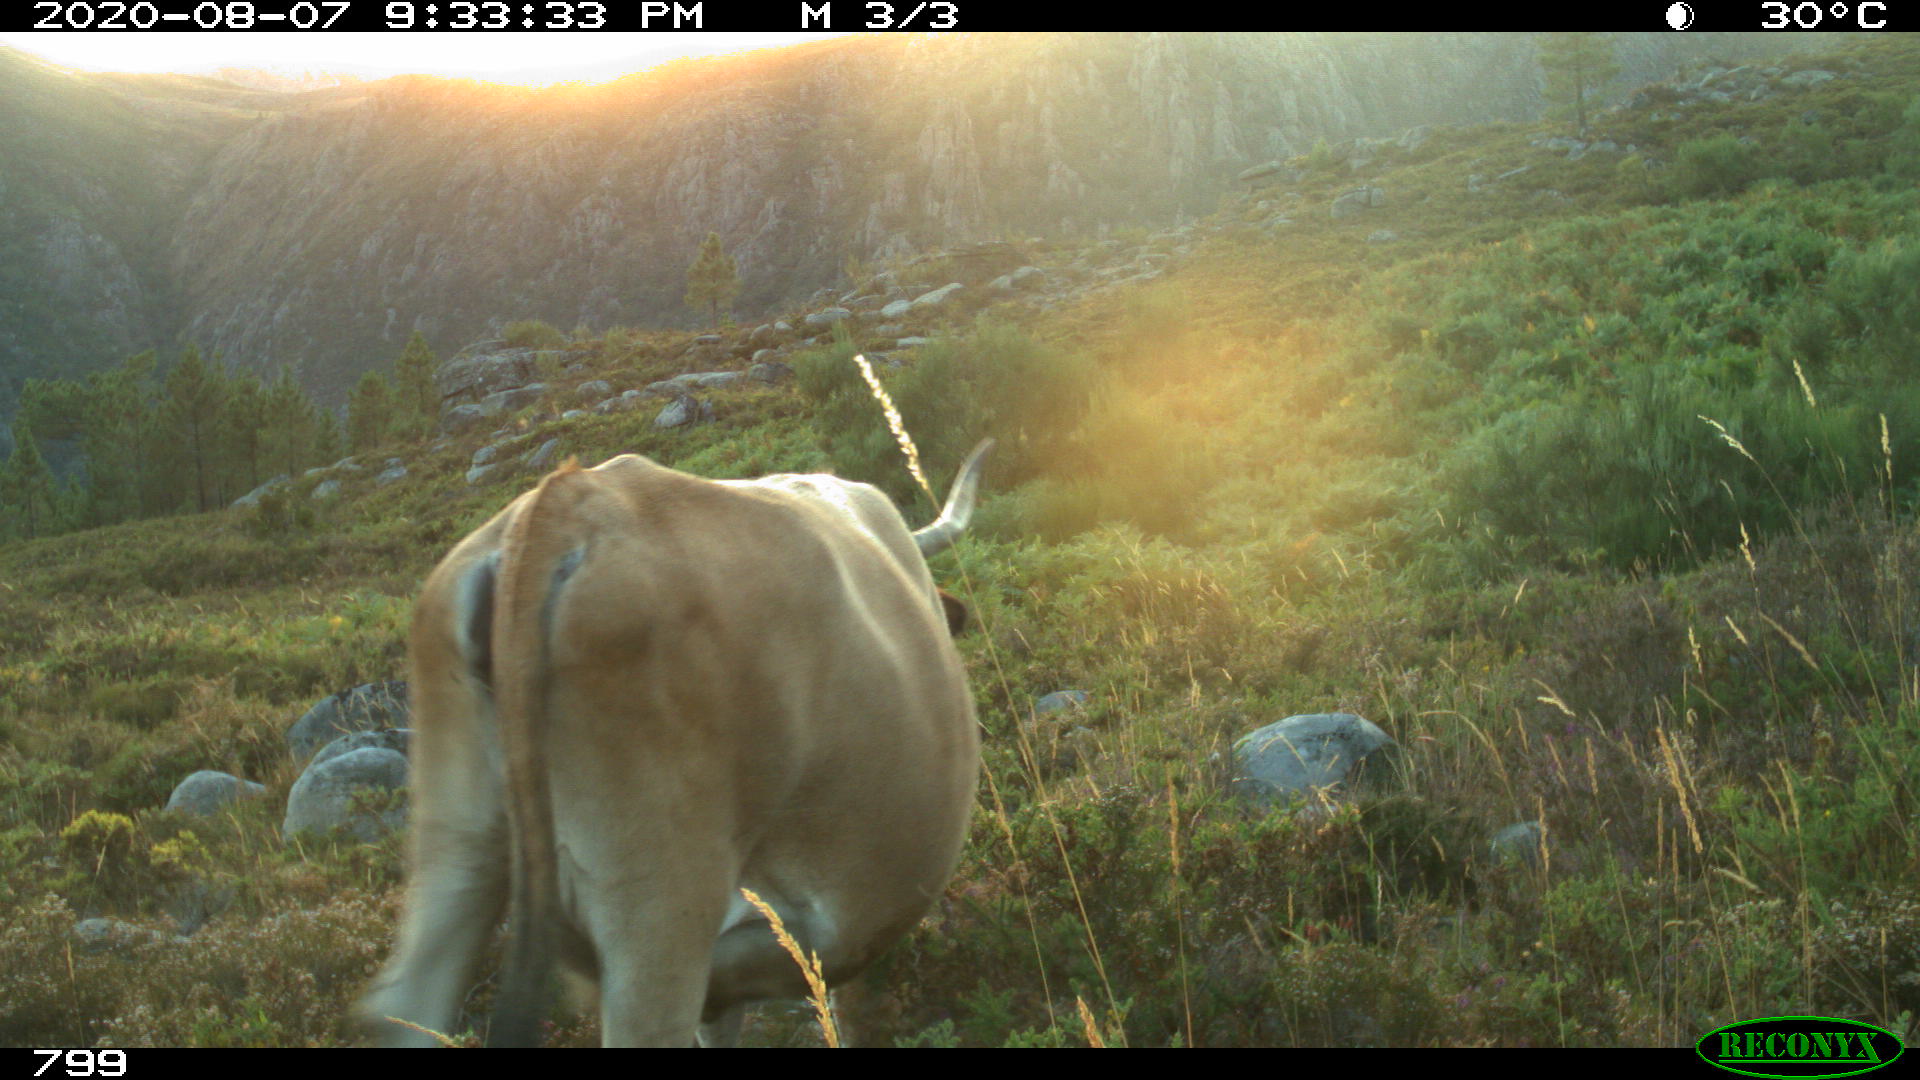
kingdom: Animalia
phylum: Chordata
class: Mammalia
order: Artiodactyla
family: Bovidae
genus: Bos
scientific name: Bos taurus
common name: Domesticated cattle
